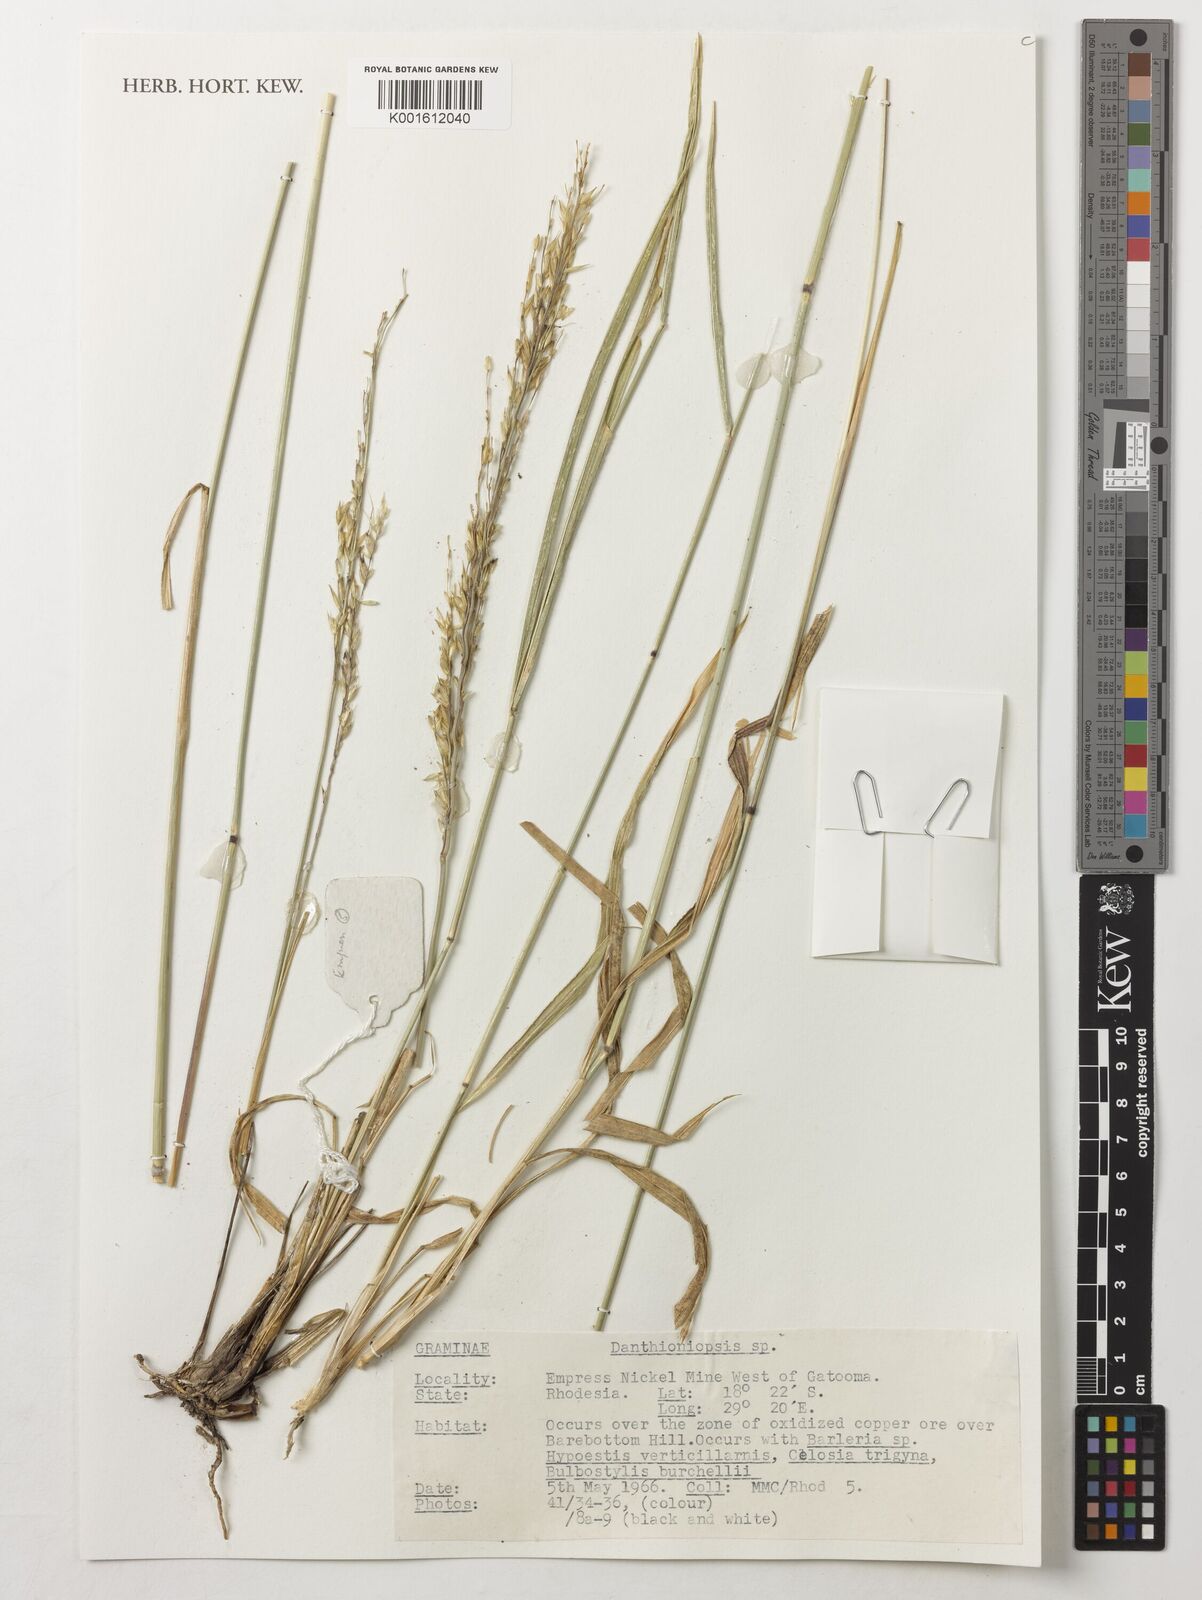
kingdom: Plantae
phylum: Tracheophyta
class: Liliopsida
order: Poales
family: Poaceae
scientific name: Poaceae
